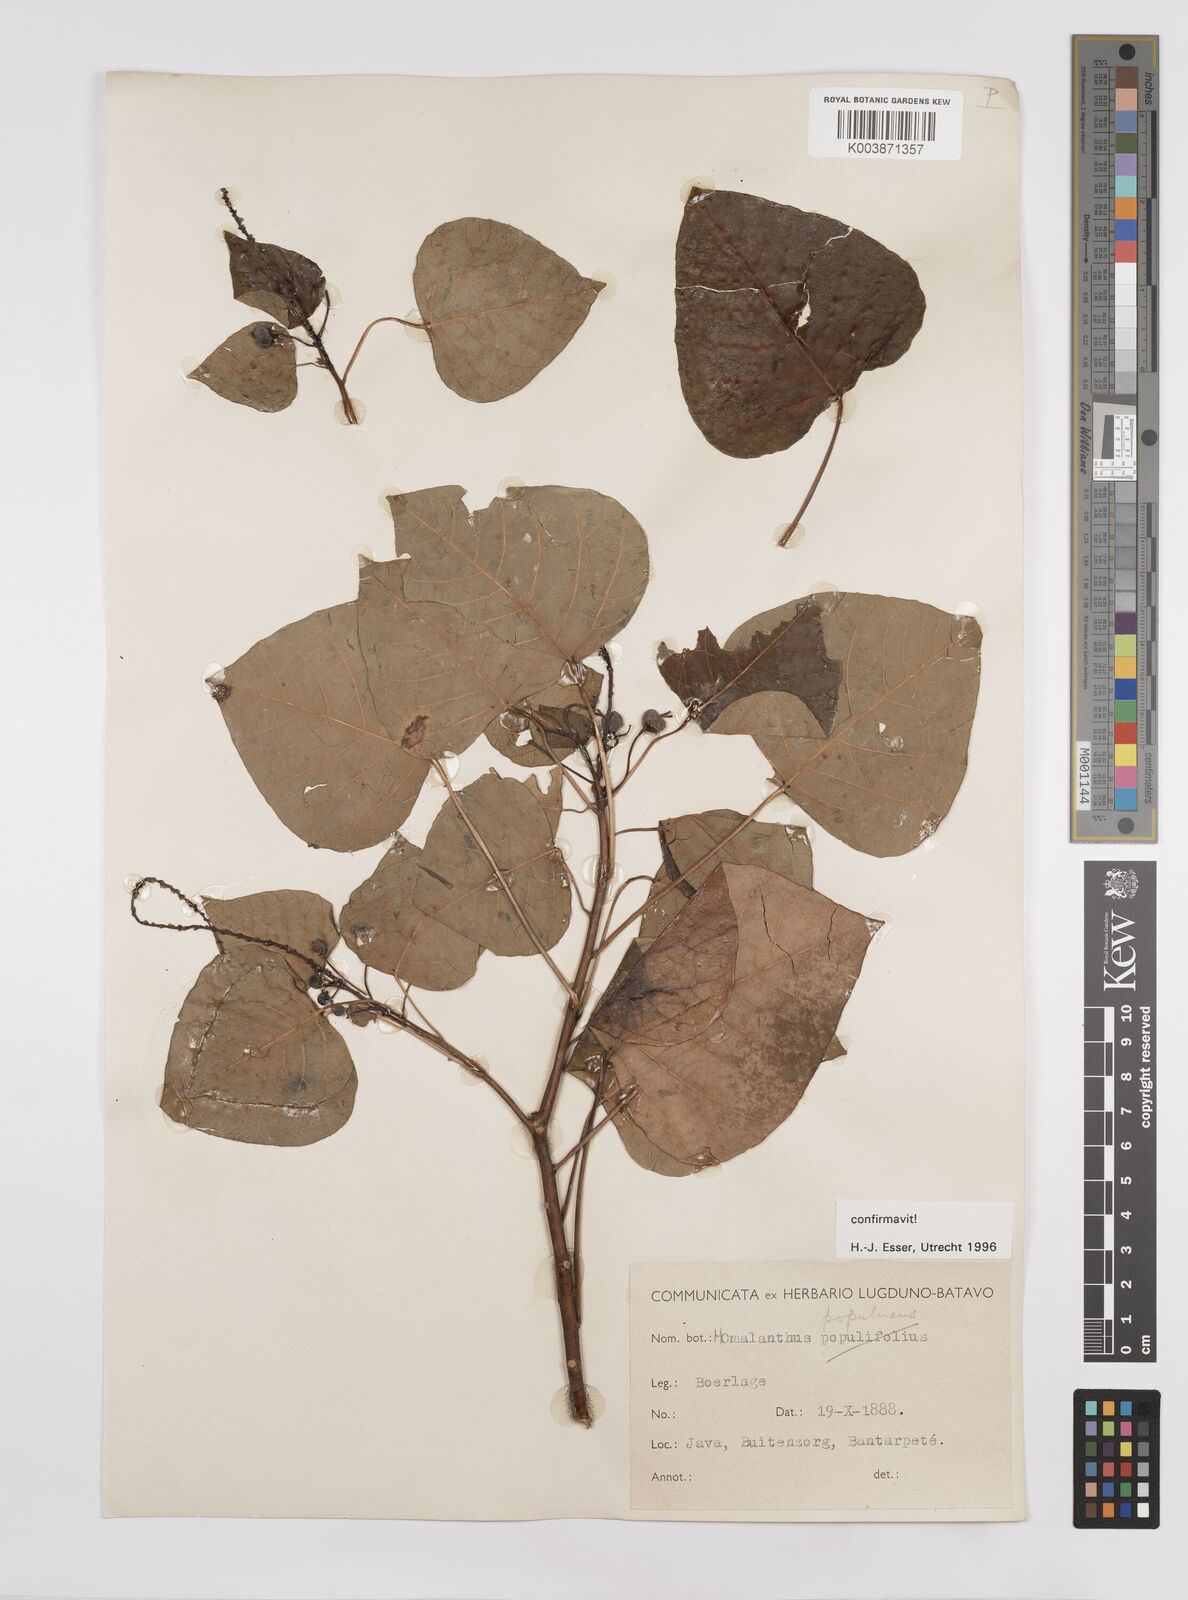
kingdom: Plantae
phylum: Tracheophyta
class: Magnoliopsida
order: Malpighiales
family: Euphorbiaceae
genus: Homalanthus
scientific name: Homalanthus populneus
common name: Spurge
